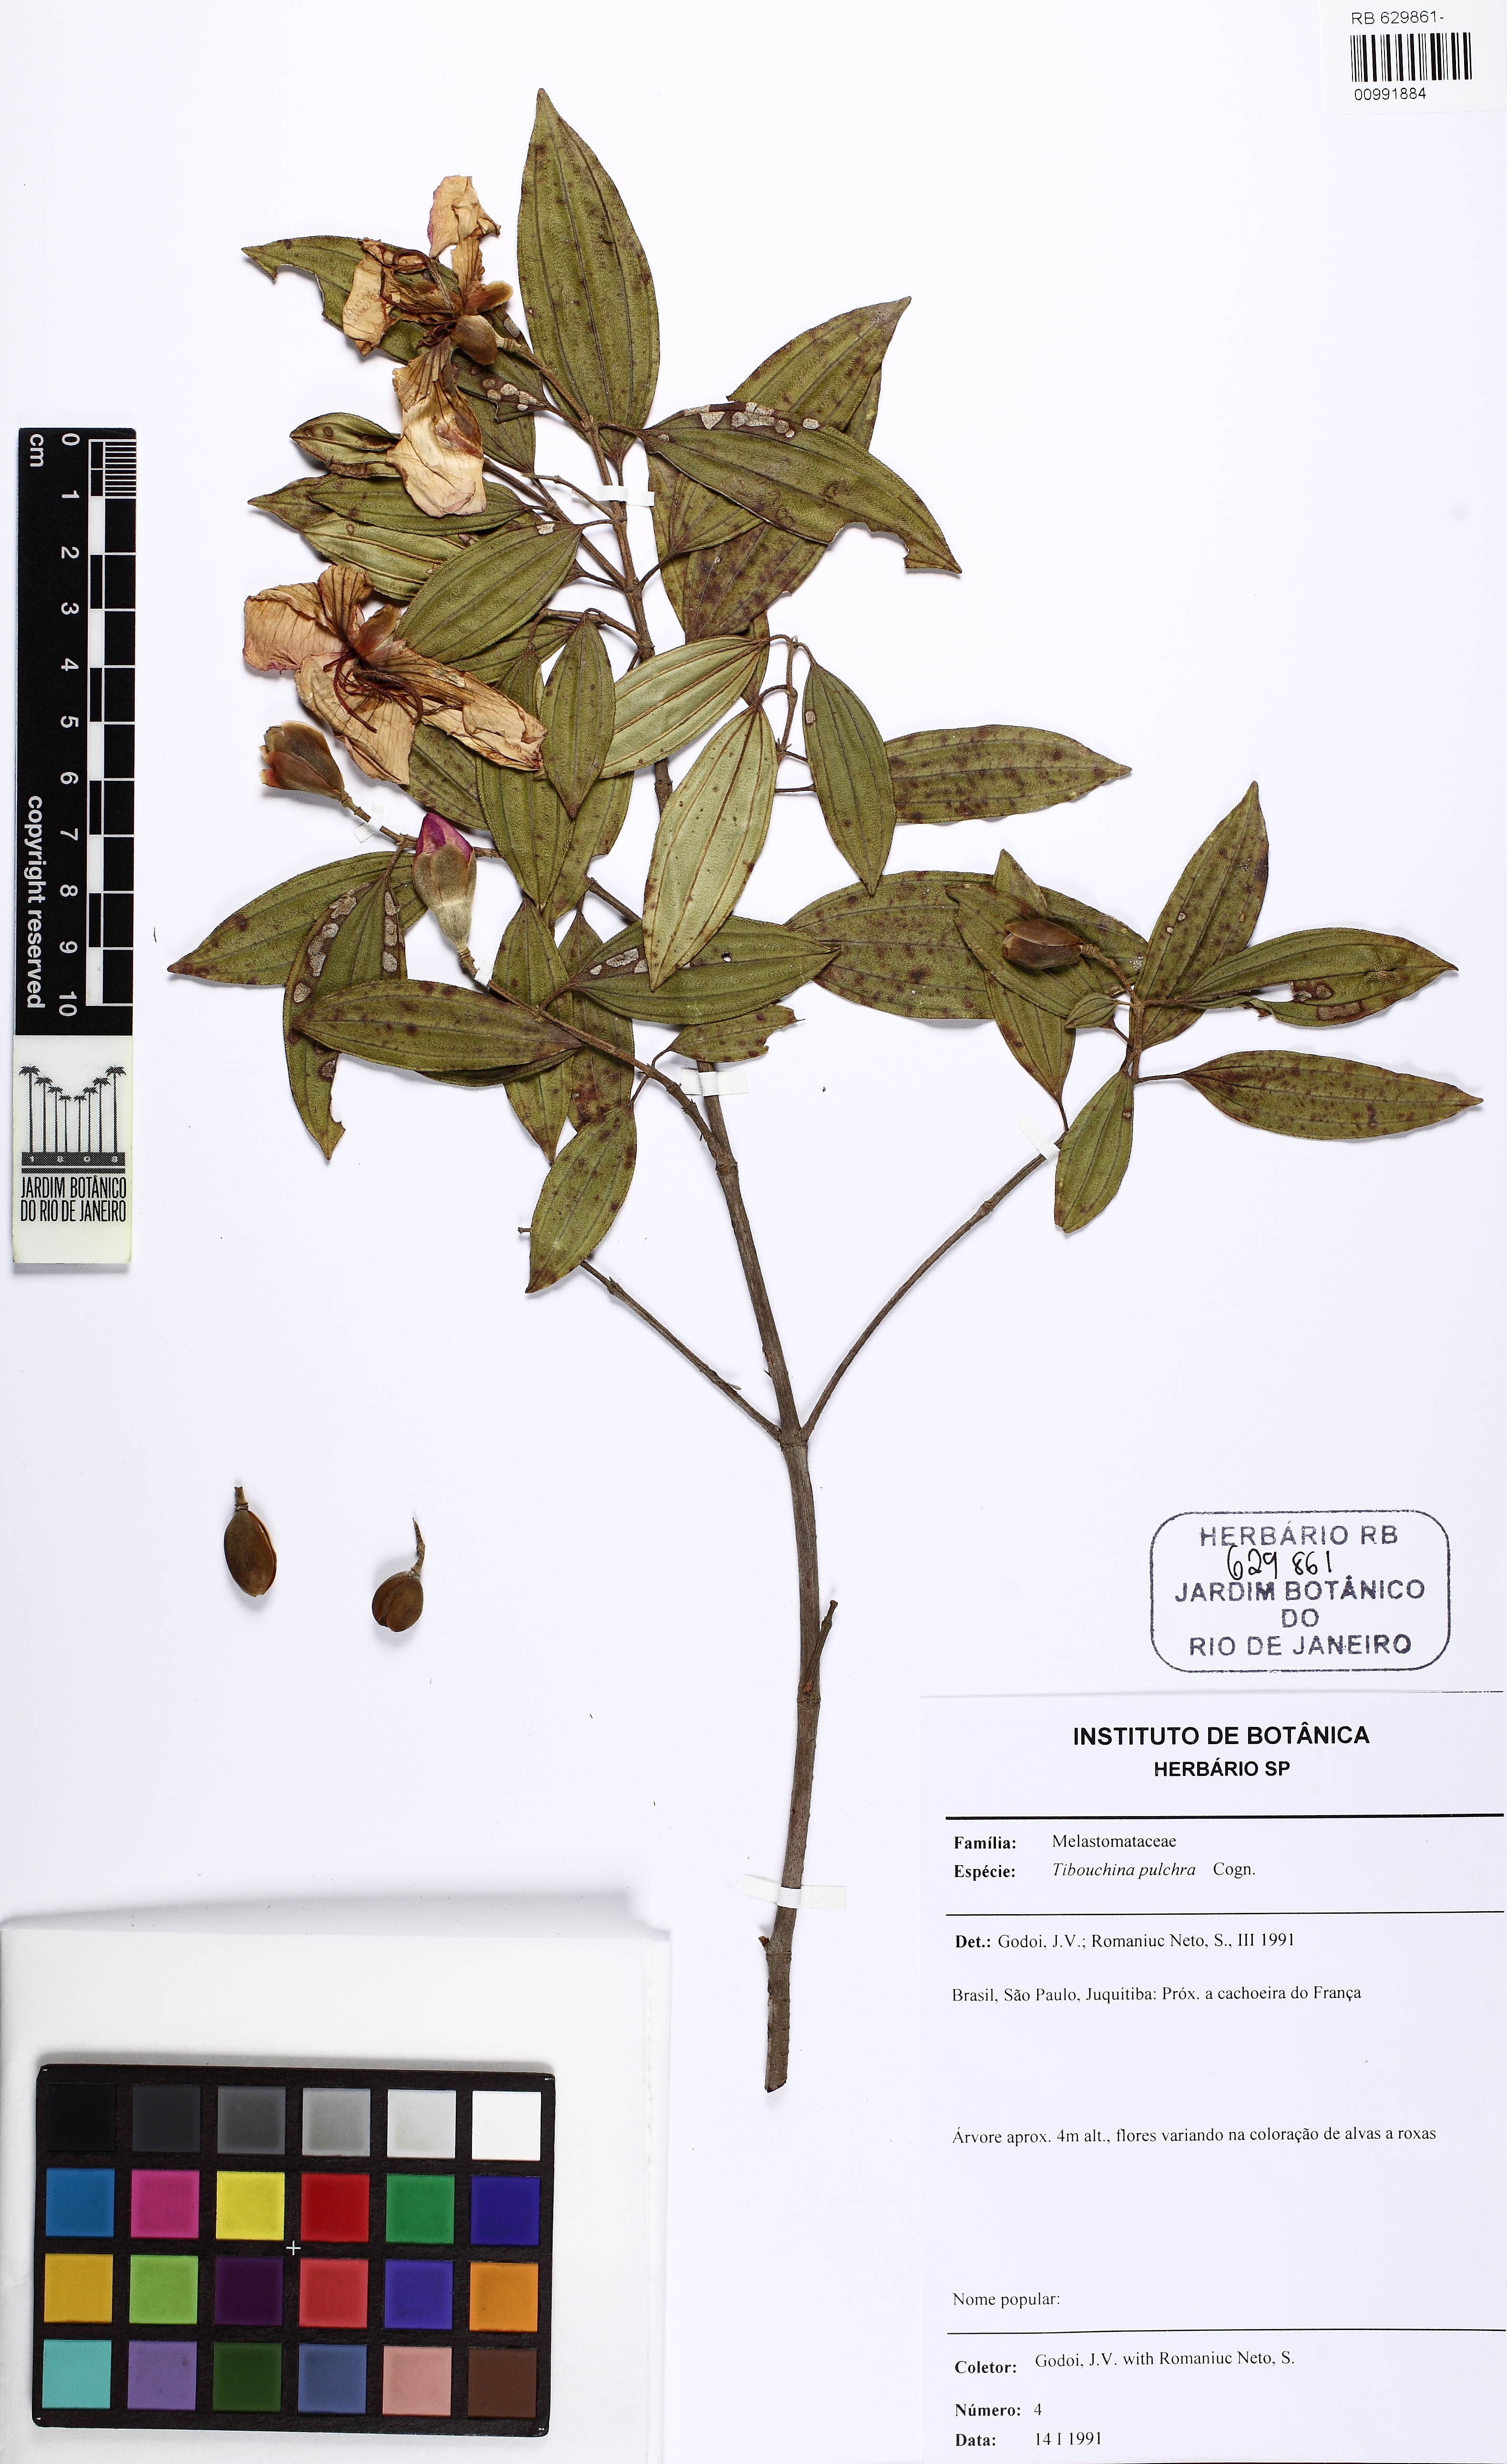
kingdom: Plantae
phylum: Tracheophyta
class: Magnoliopsida
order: Myrtales
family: Melastomataceae
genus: Pleroma
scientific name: Pleroma raddianum
